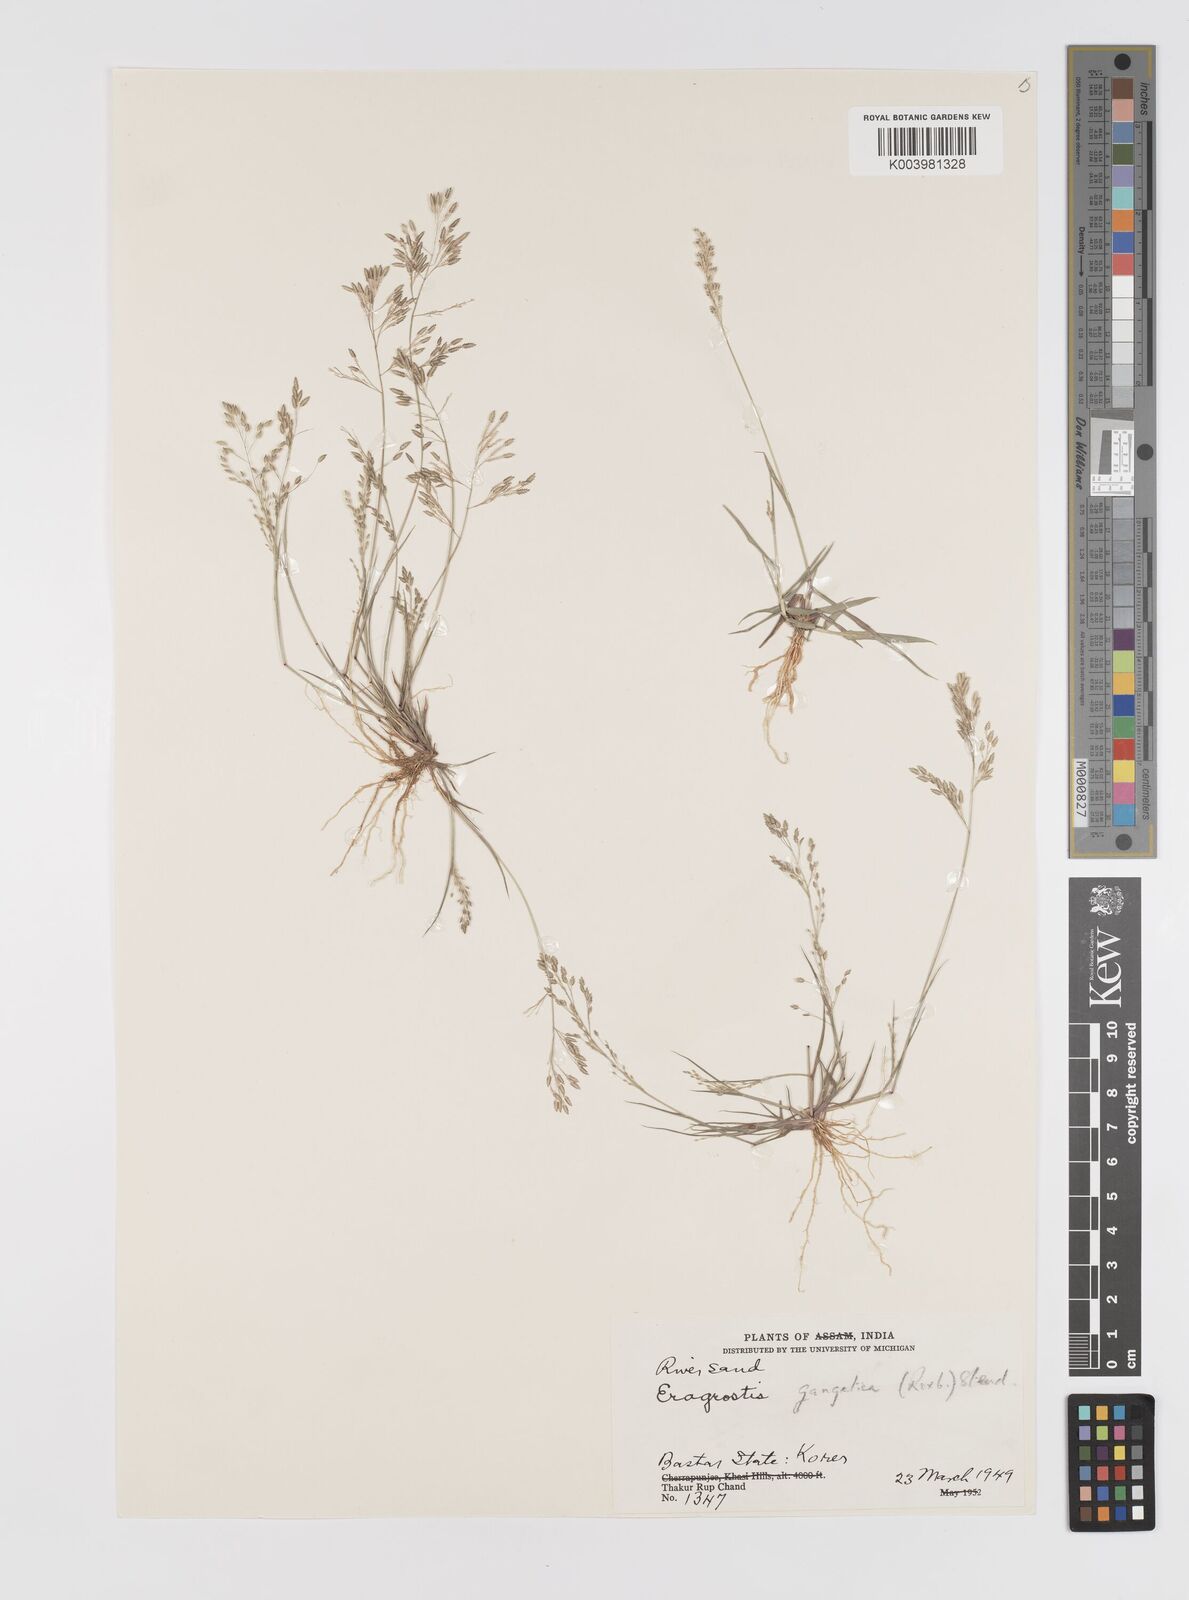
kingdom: Plantae
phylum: Tracheophyta
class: Liliopsida
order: Poales
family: Poaceae
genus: Eragrostis
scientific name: Eragrostis gangetica
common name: Slimflower lovegrass
